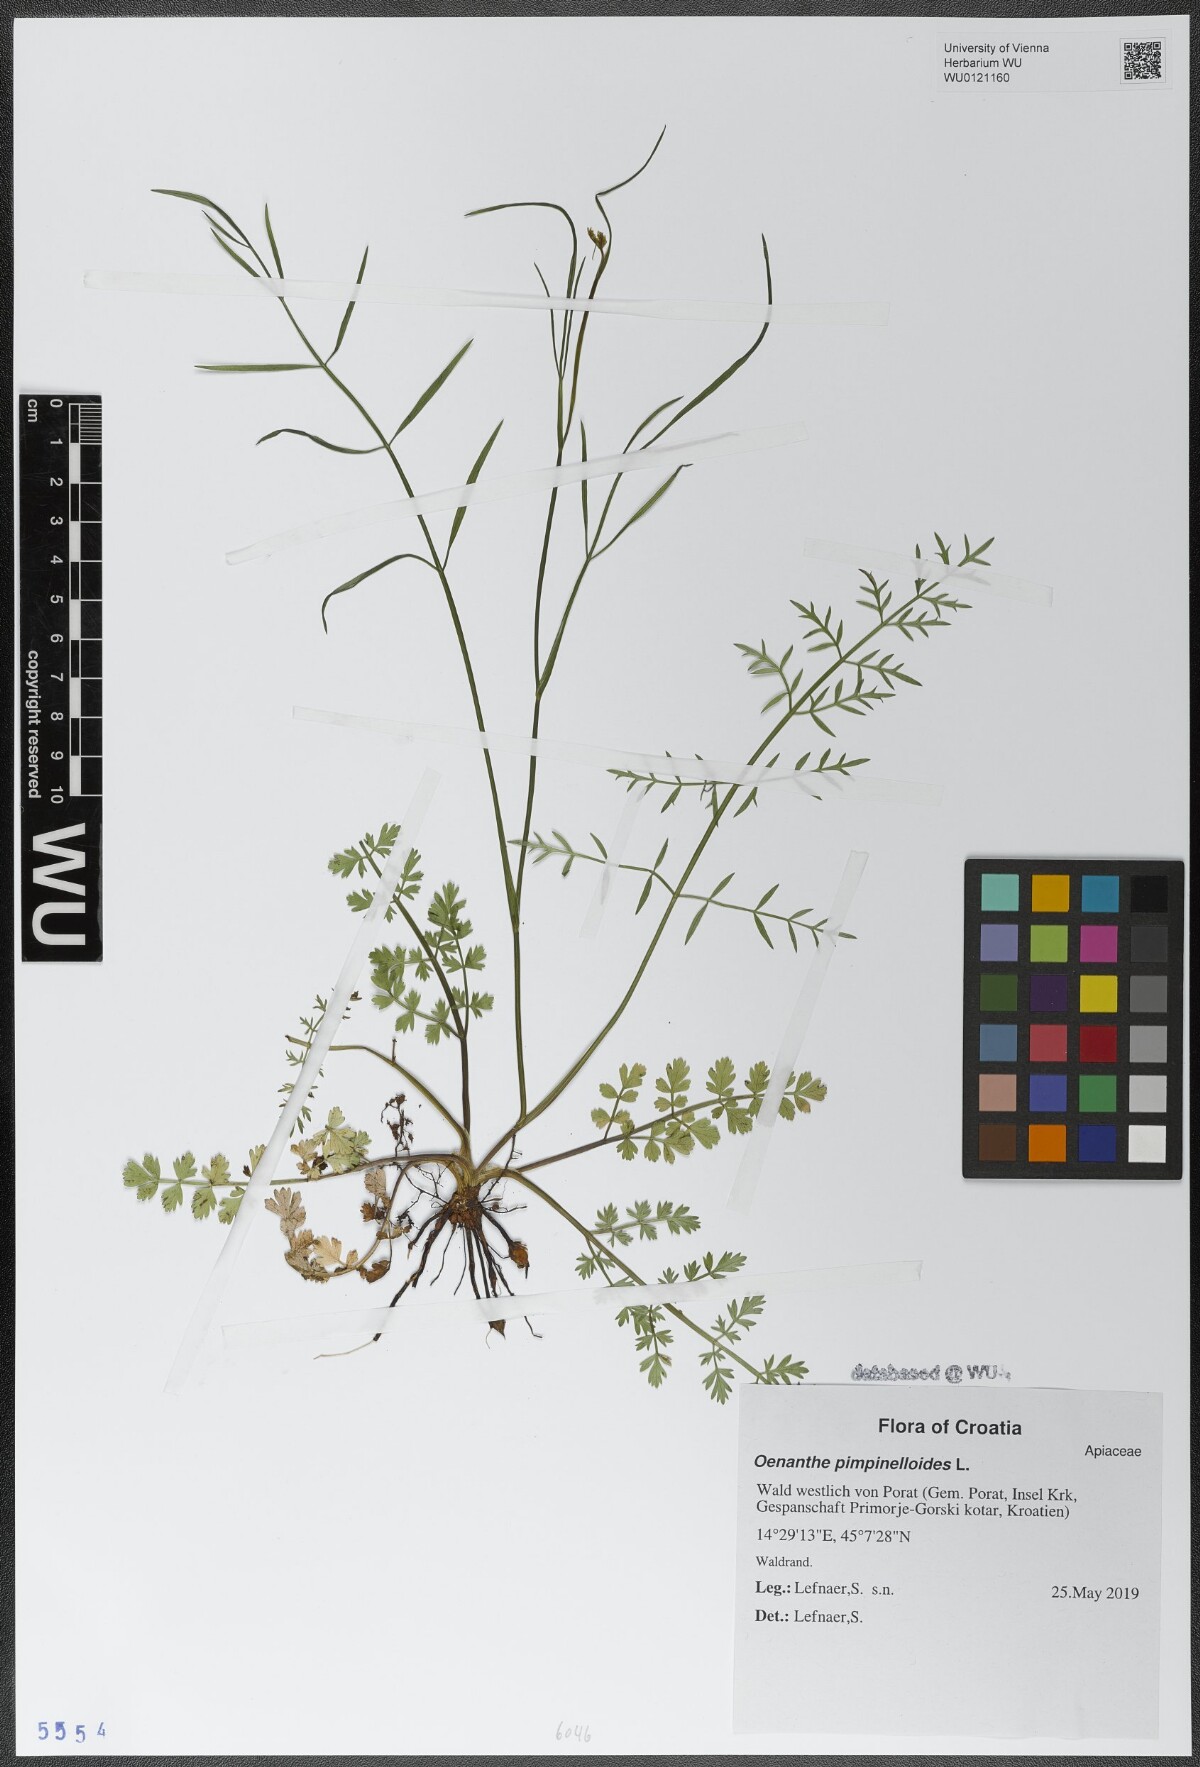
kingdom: Plantae
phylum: Tracheophyta
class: Magnoliopsida
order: Apiales
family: Apiaceae
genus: Oenanthe
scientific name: Oenanthe pimpinelloides
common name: Corky-fruited water-dropwort
